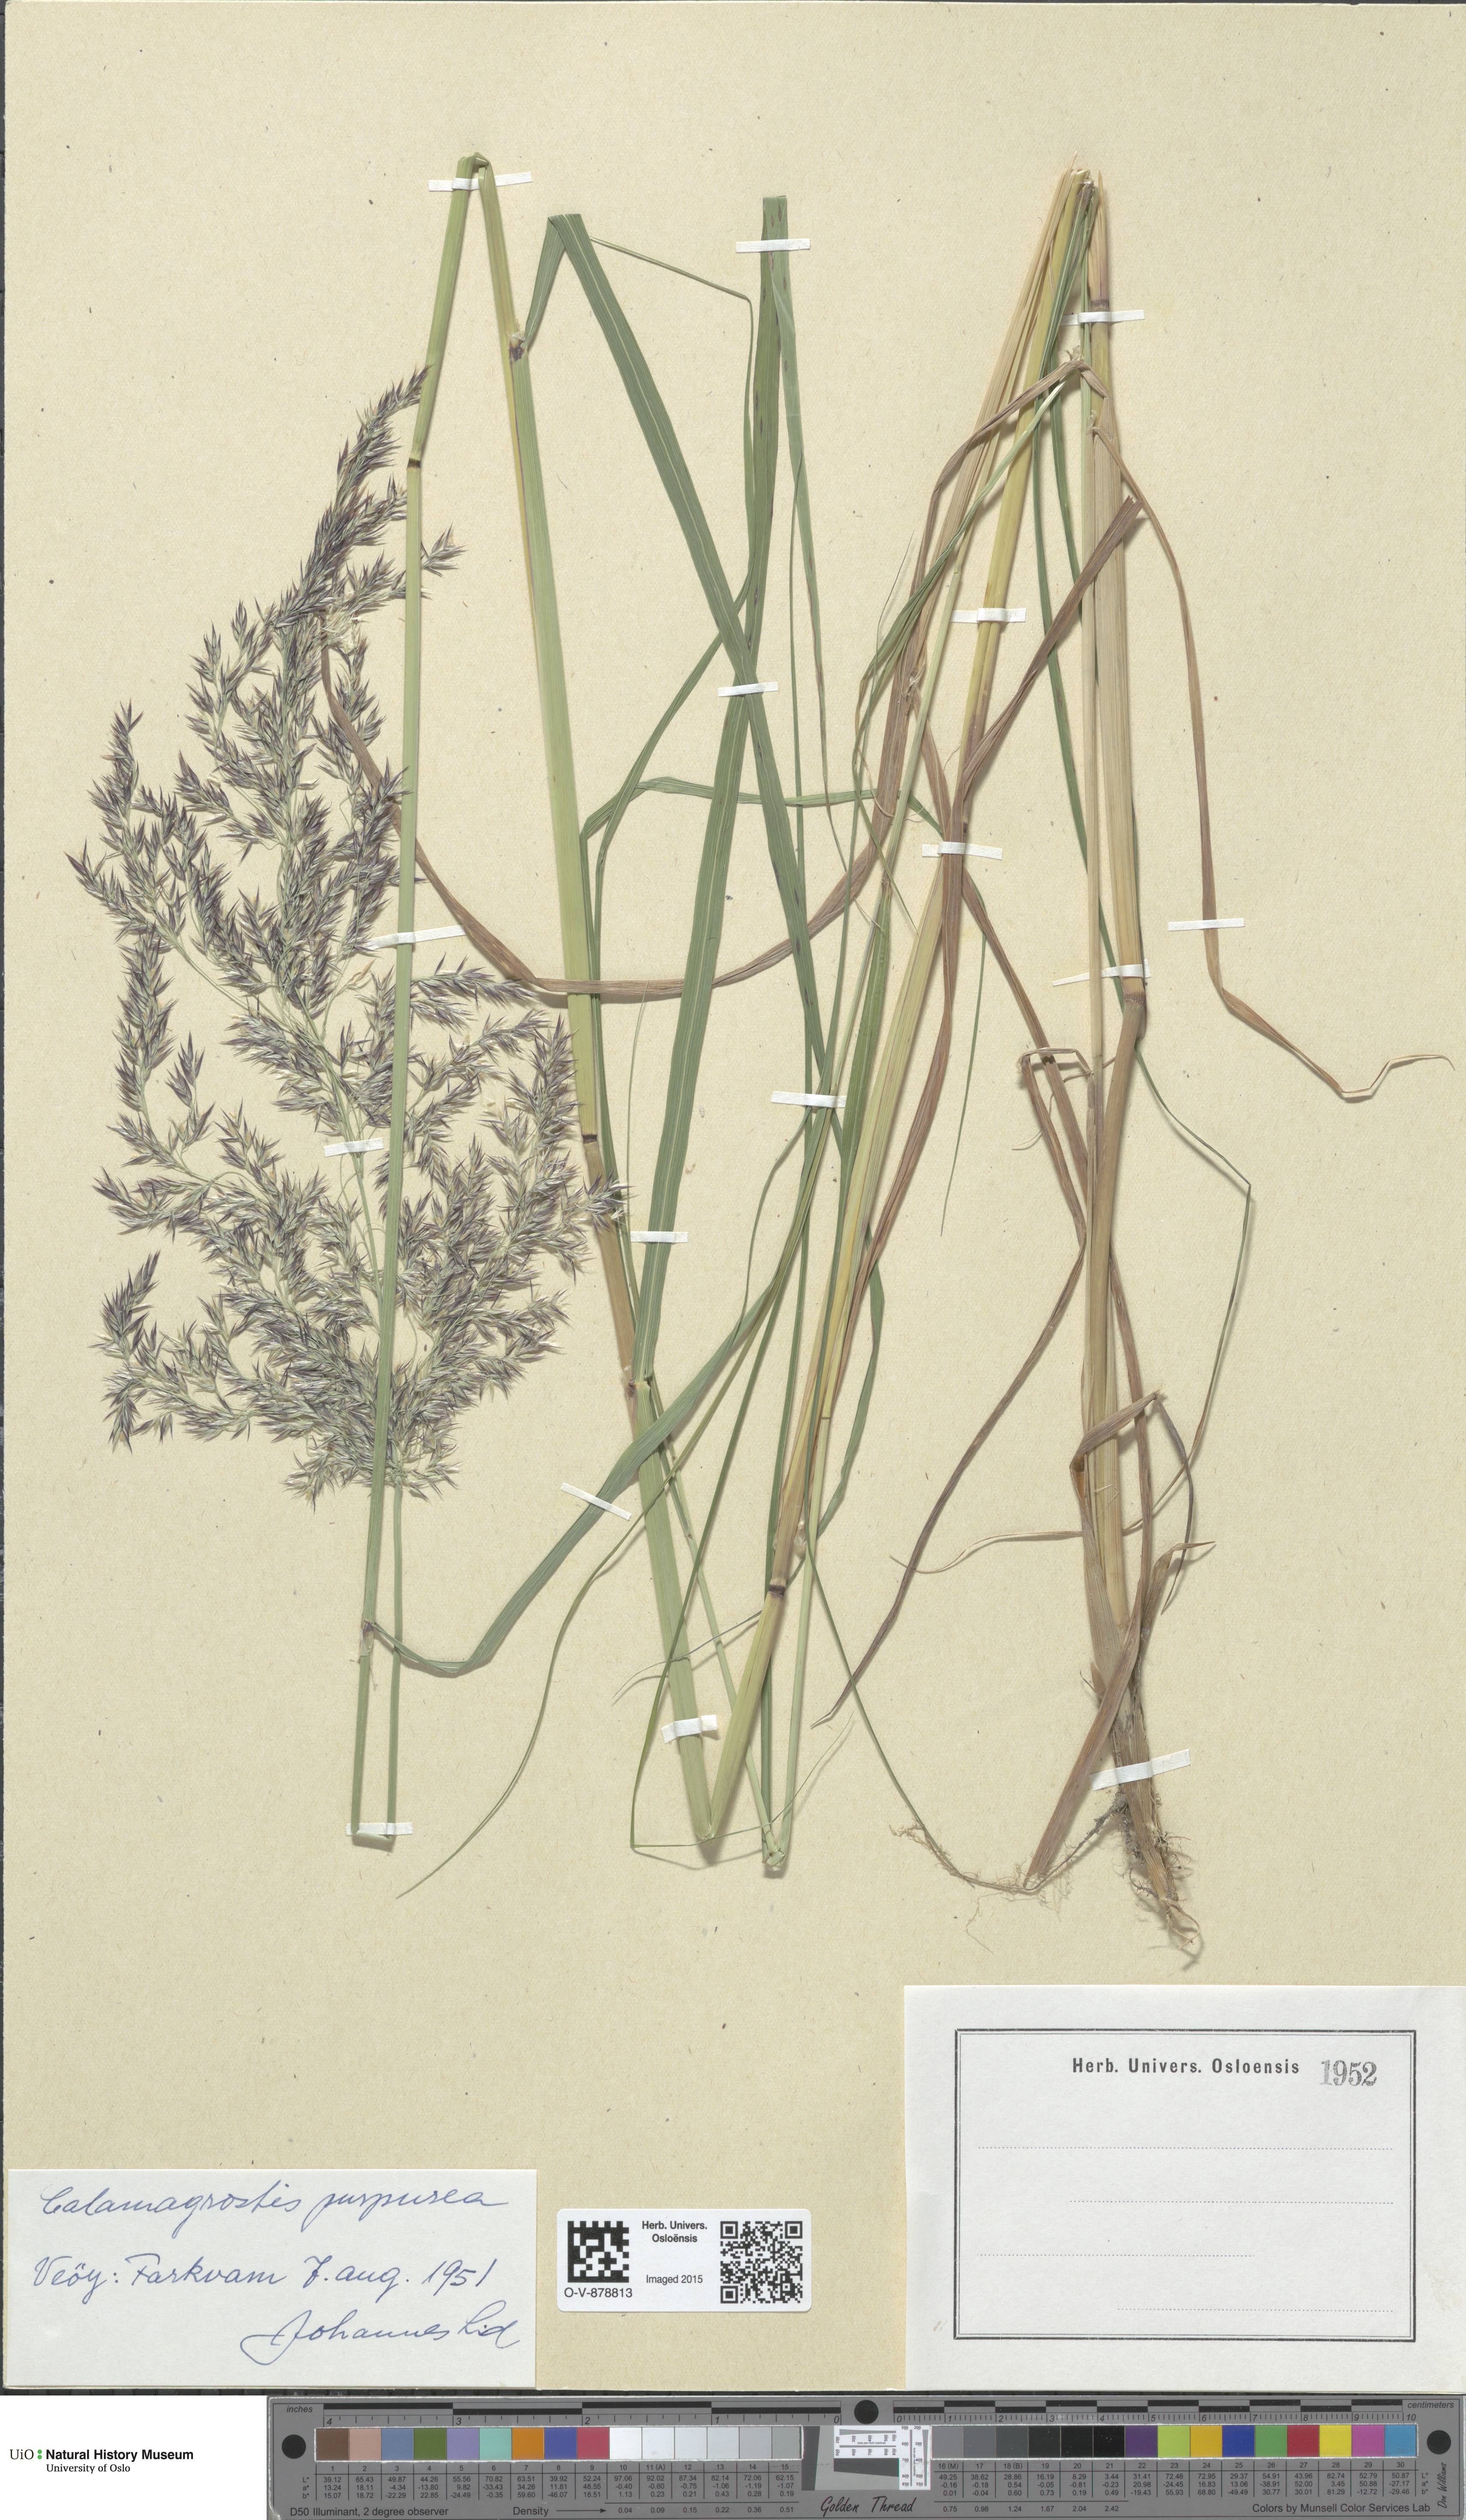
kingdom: Plantae
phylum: Tracheophyta
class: Liliopsida
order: Poales
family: Poaceae
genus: Calamagrostis
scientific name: Calamagrostis purpurea
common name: Scandinavian small-reed
